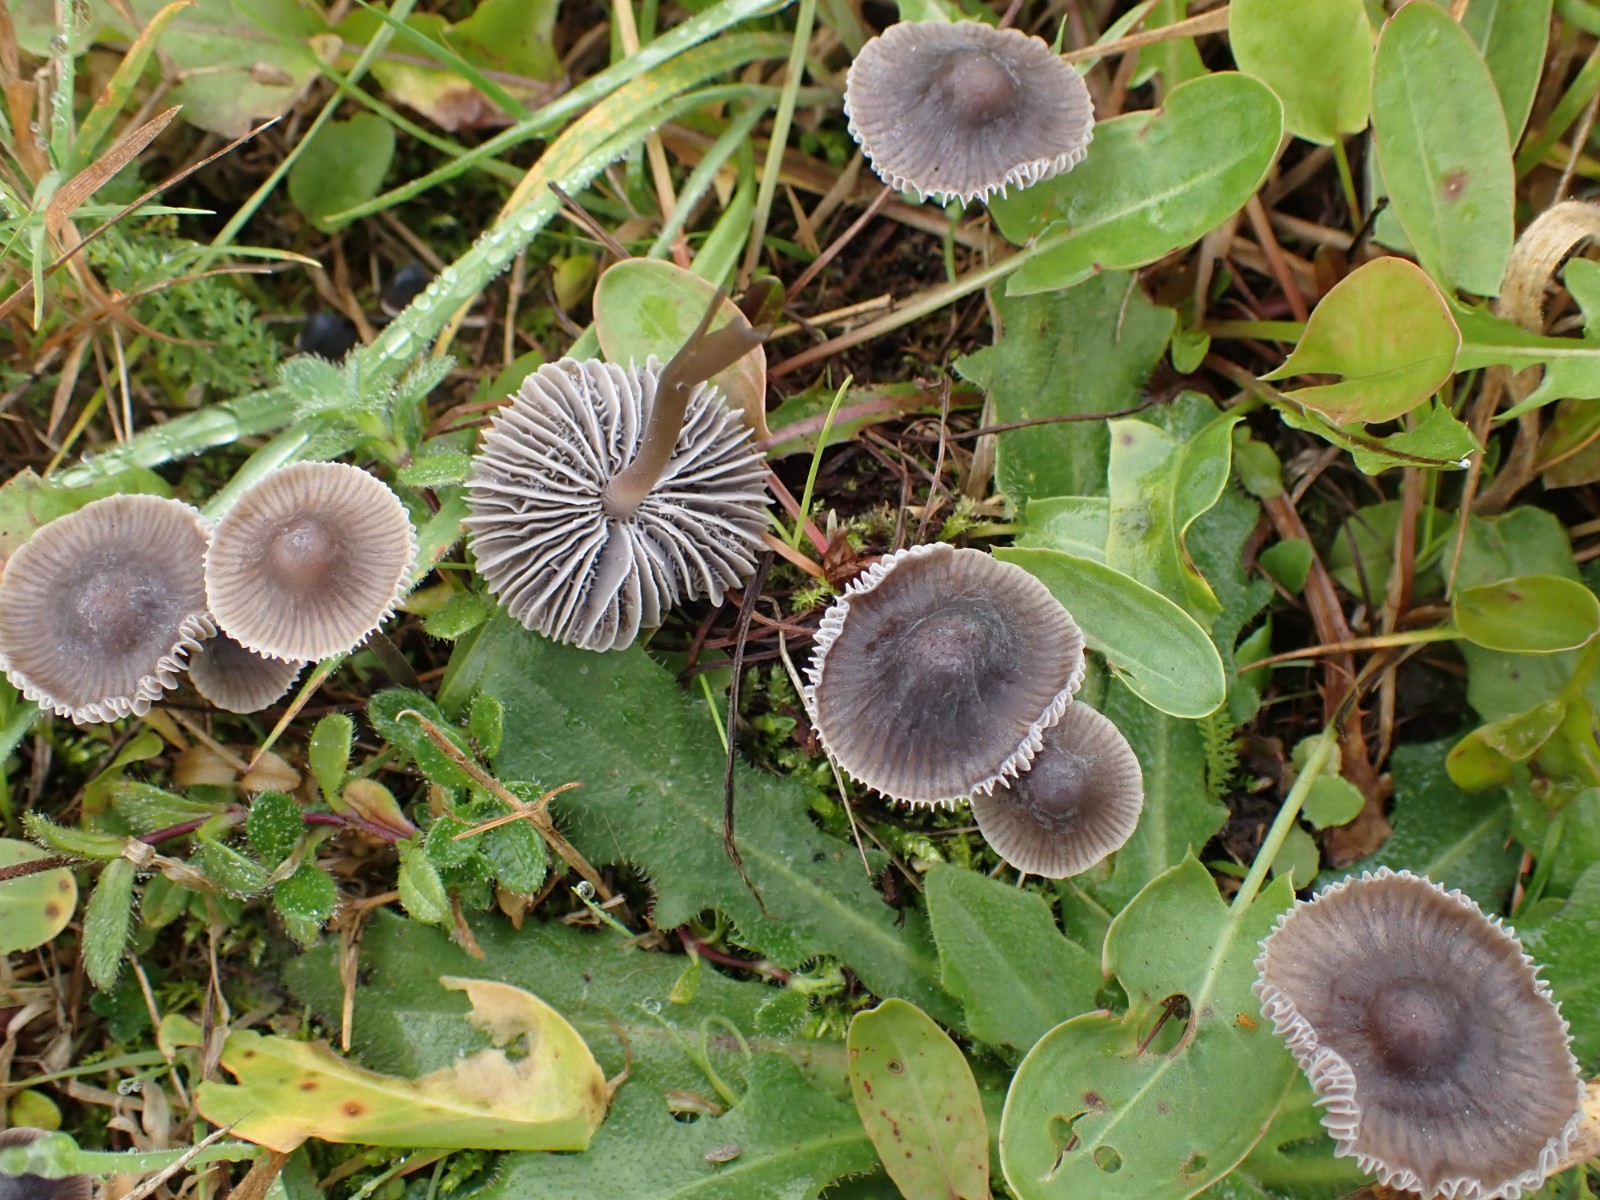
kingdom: Fungi
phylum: Basidiomycota
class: Agaricomycetes
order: Agaricales
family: Mycenaceae
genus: Mycena
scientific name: Mycena aetites
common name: plæne-huesvamp
